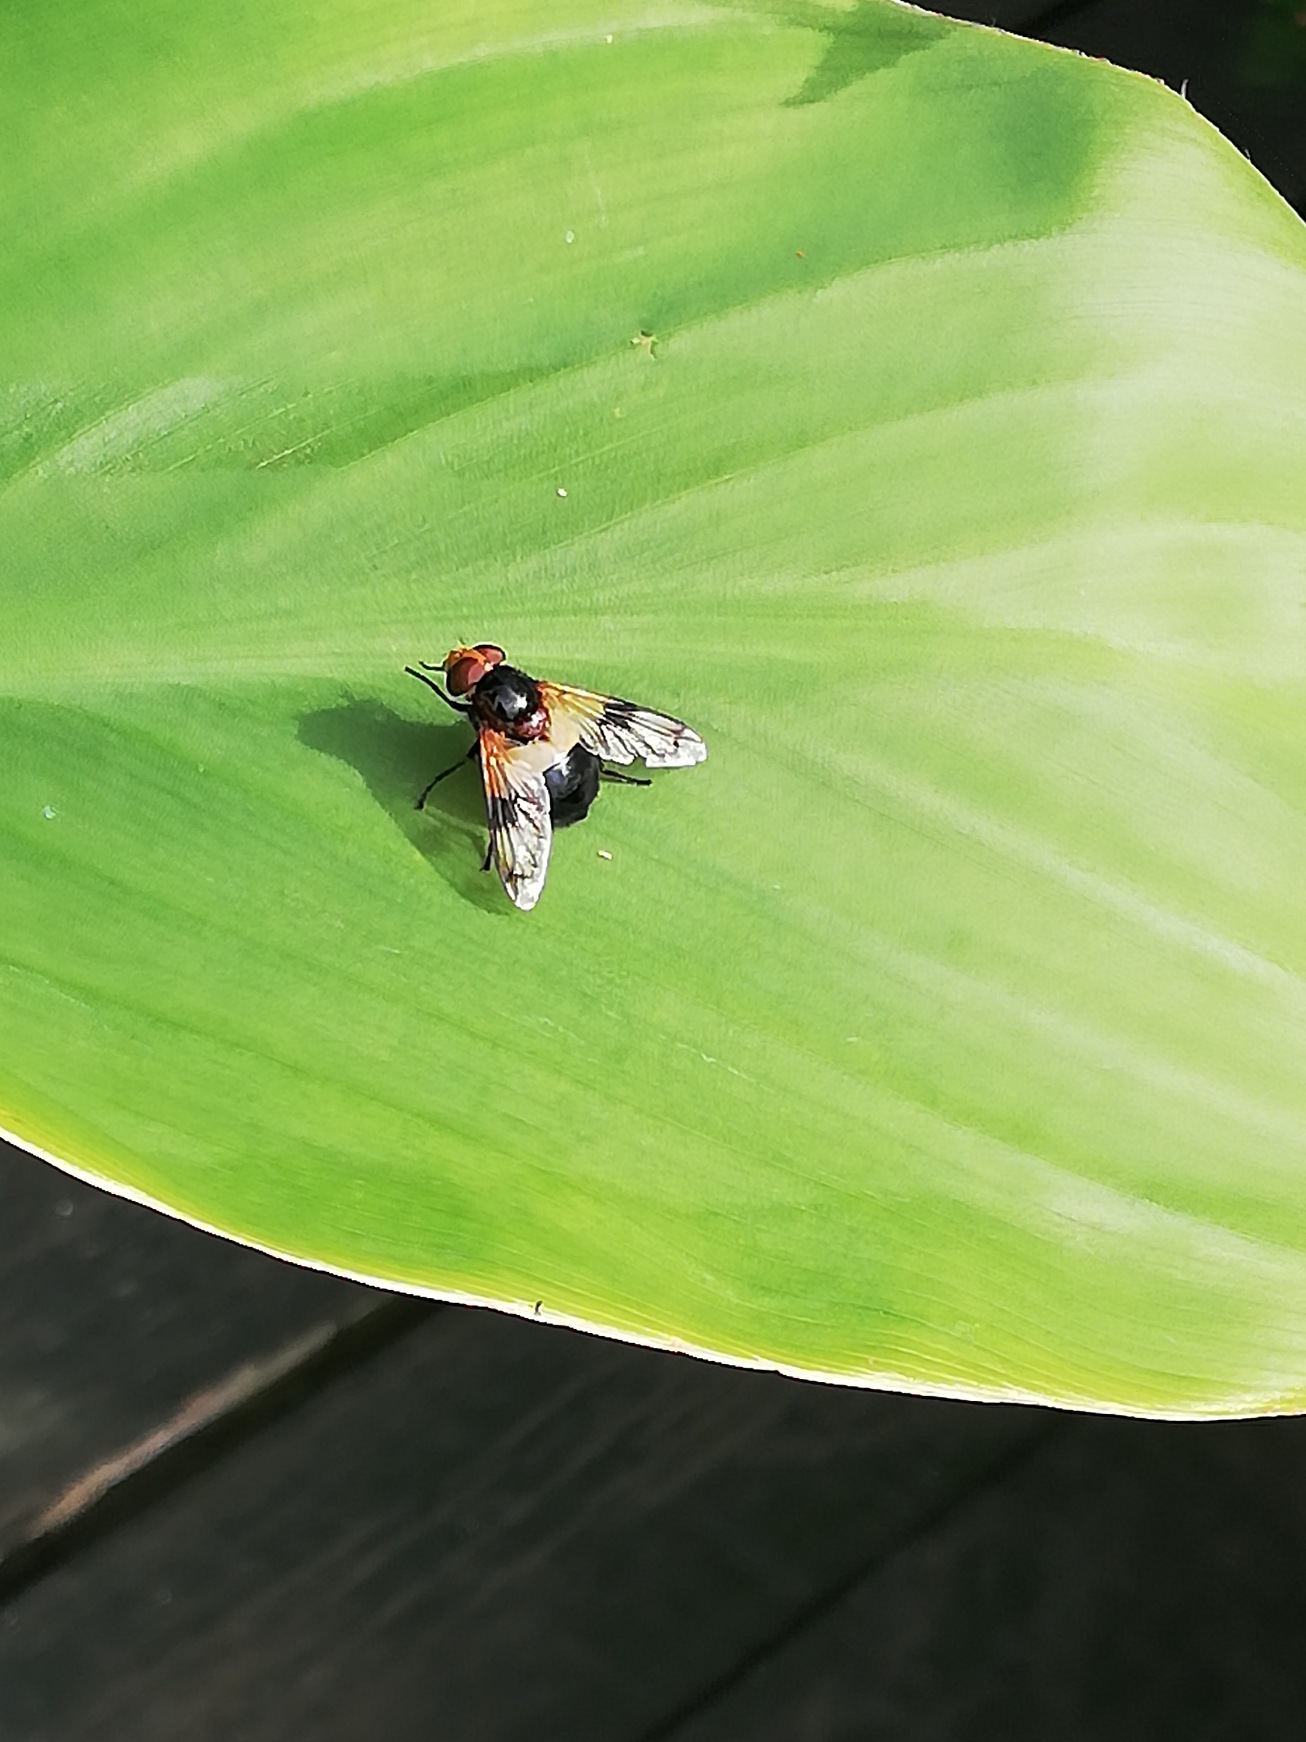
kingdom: Animalia
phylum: Arthropoda
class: Insecta
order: Diptera
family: Syrphidae
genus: Volucella
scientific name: Volucella pellucens
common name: Hvidbåndet humlesvirreflue
